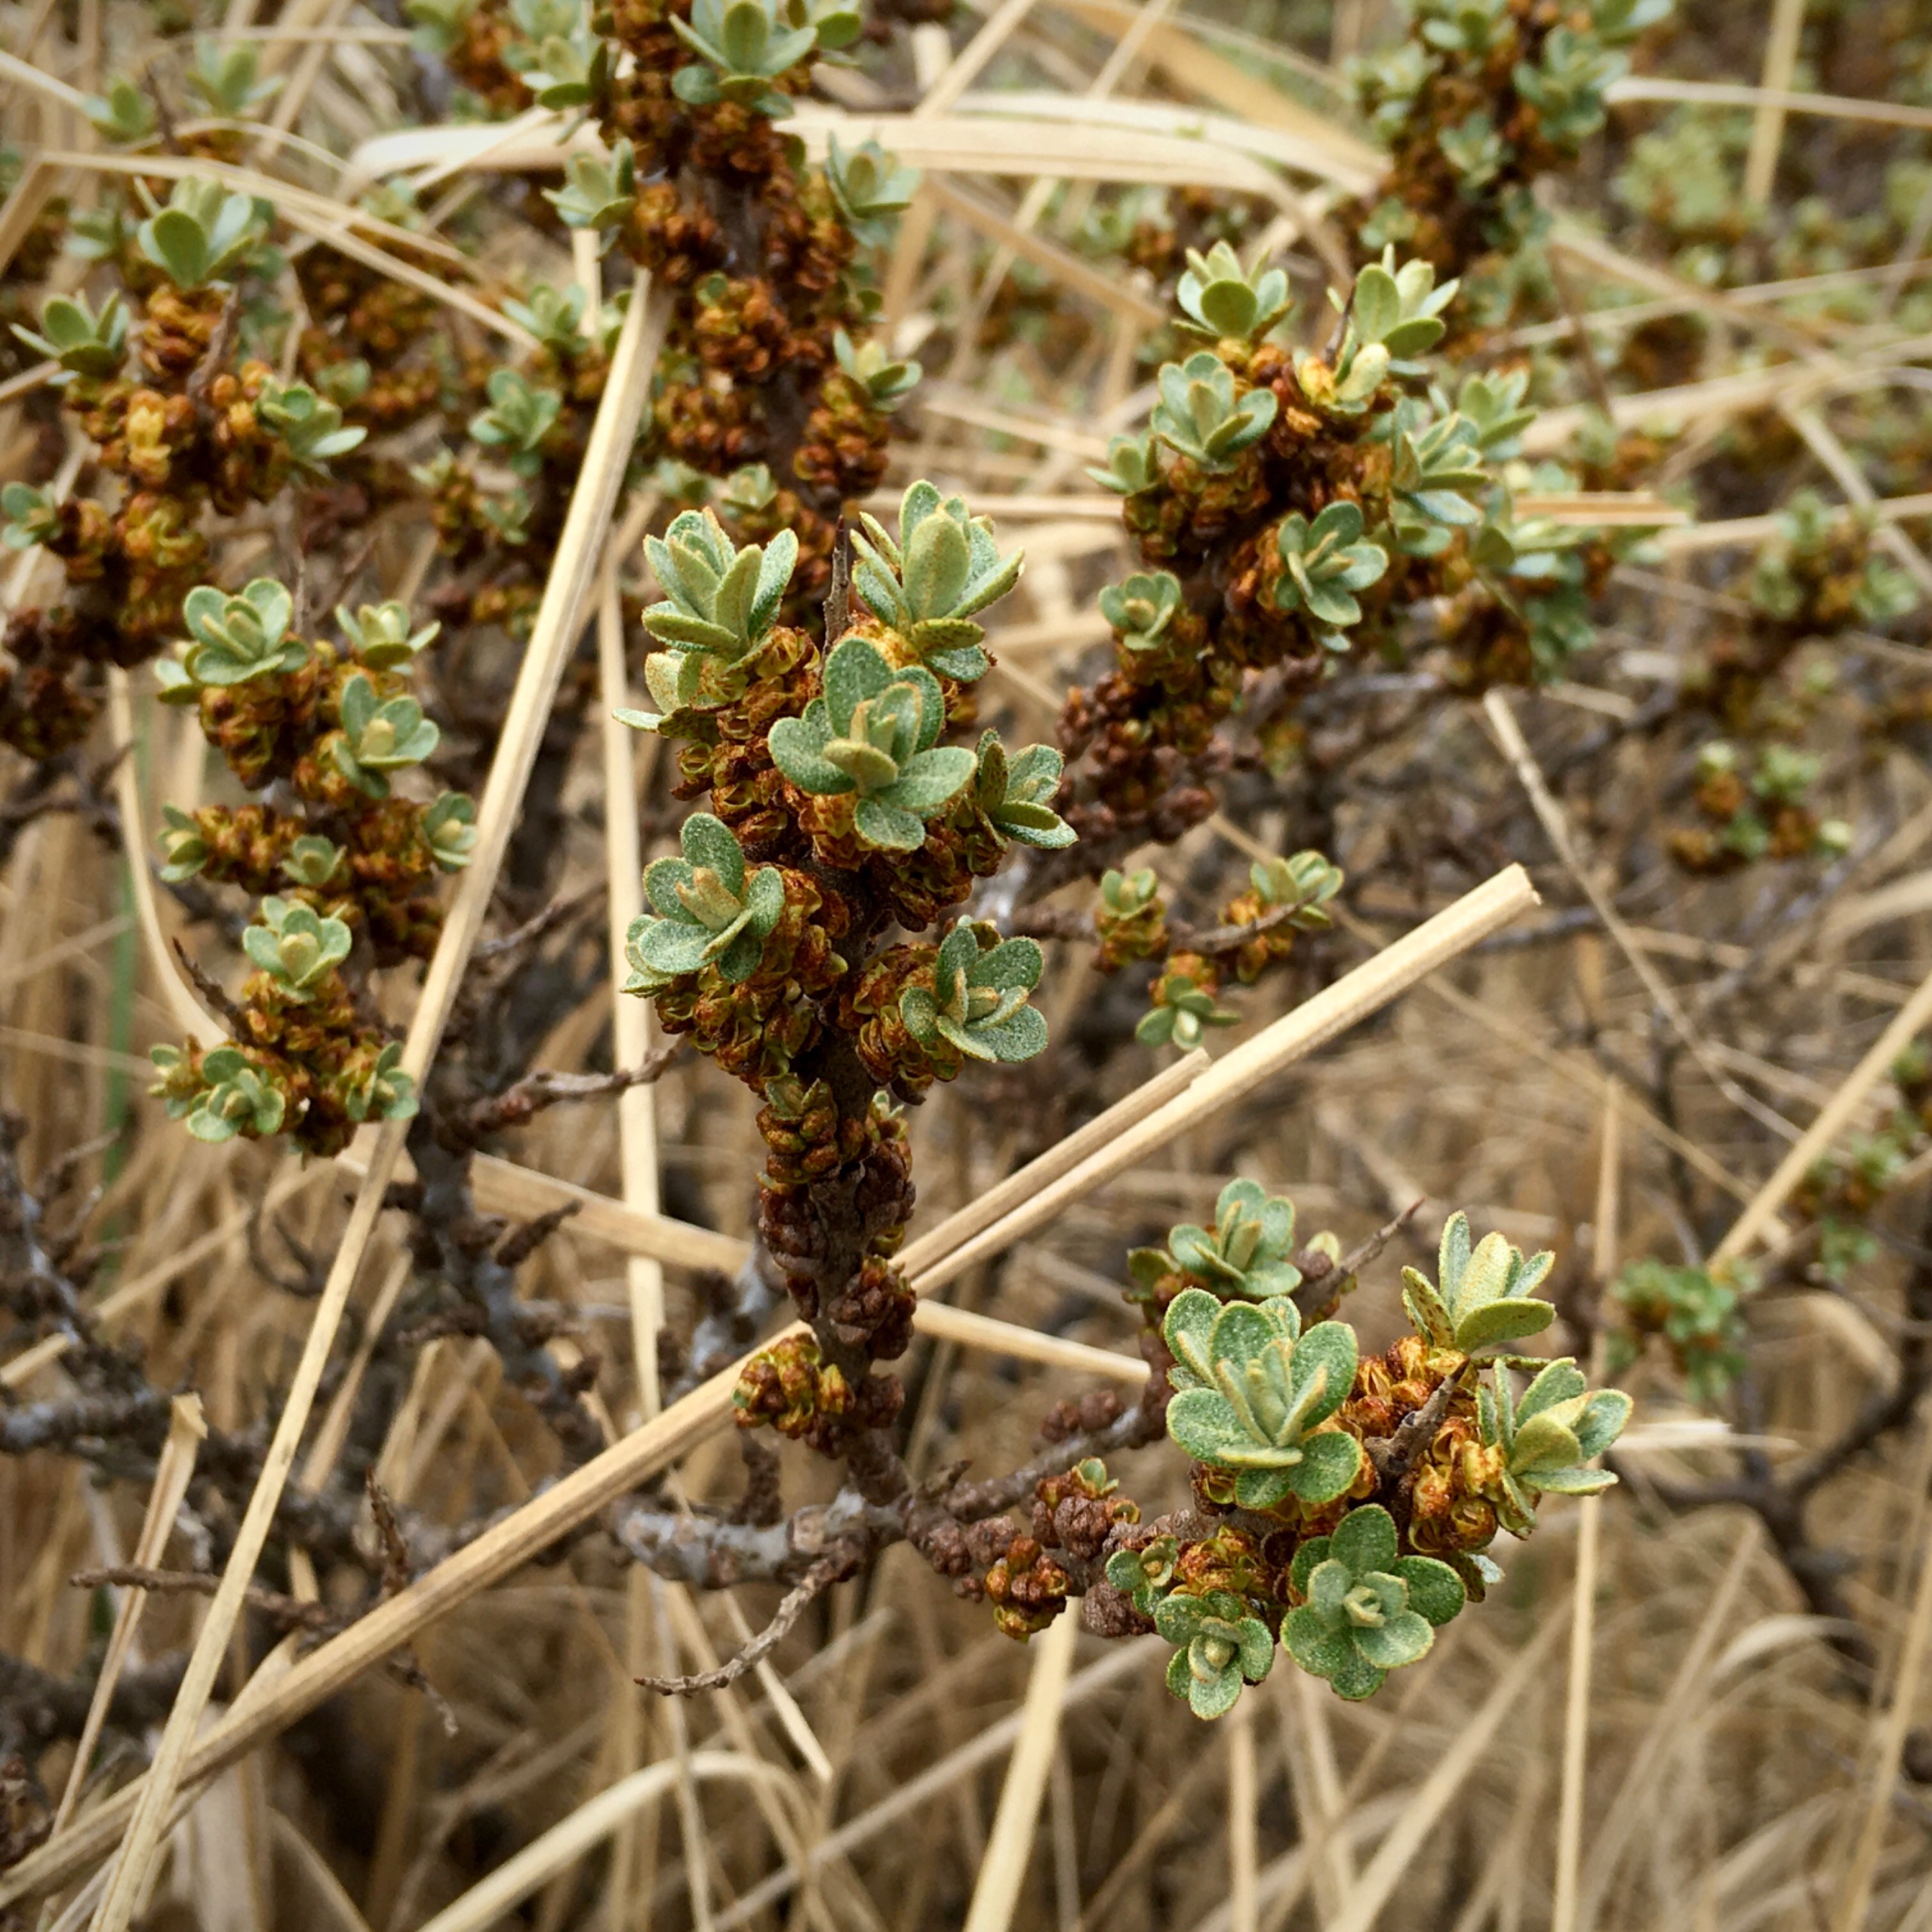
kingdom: Plantae
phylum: Tracheophyta
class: Magnoliopsida
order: Rosales
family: Elaeagnaceae
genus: Hippophae
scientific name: Hippophae rhamnoides
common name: Havtorn
